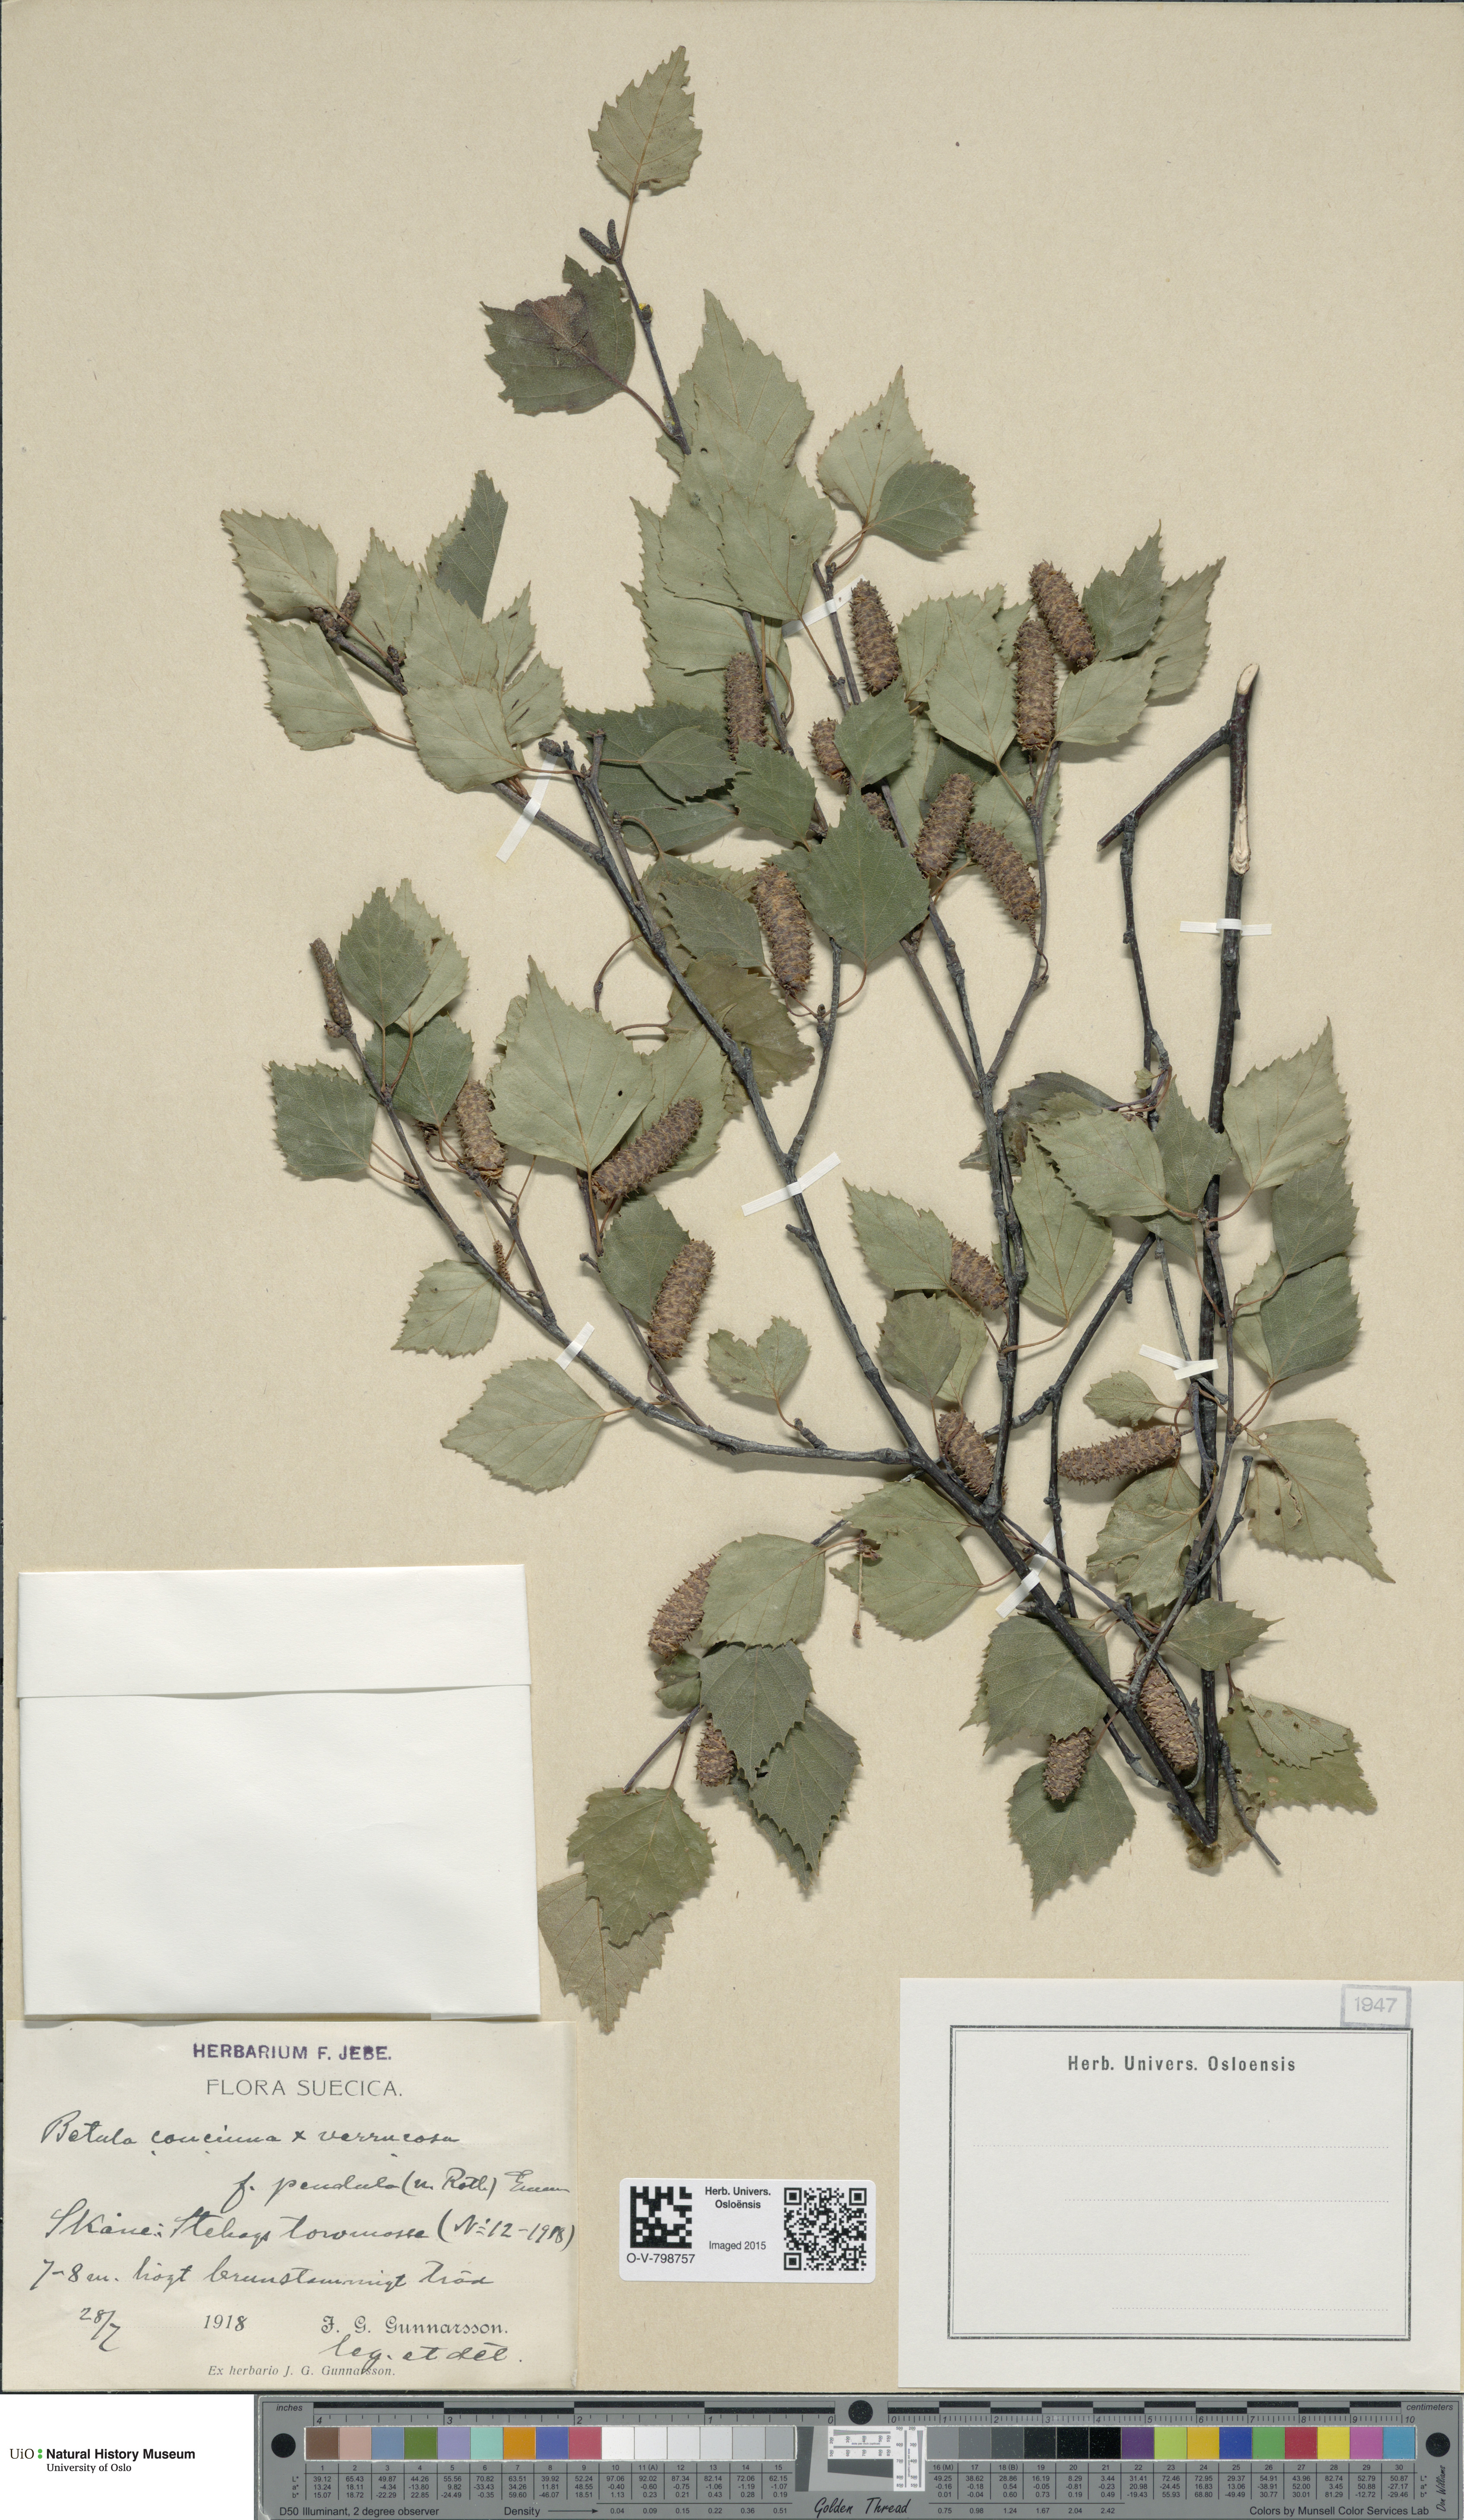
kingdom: Plantae
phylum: Tracheophyta
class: Magnoliopsida
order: Fagales
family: Betulaceae
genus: Betula
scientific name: Betula
